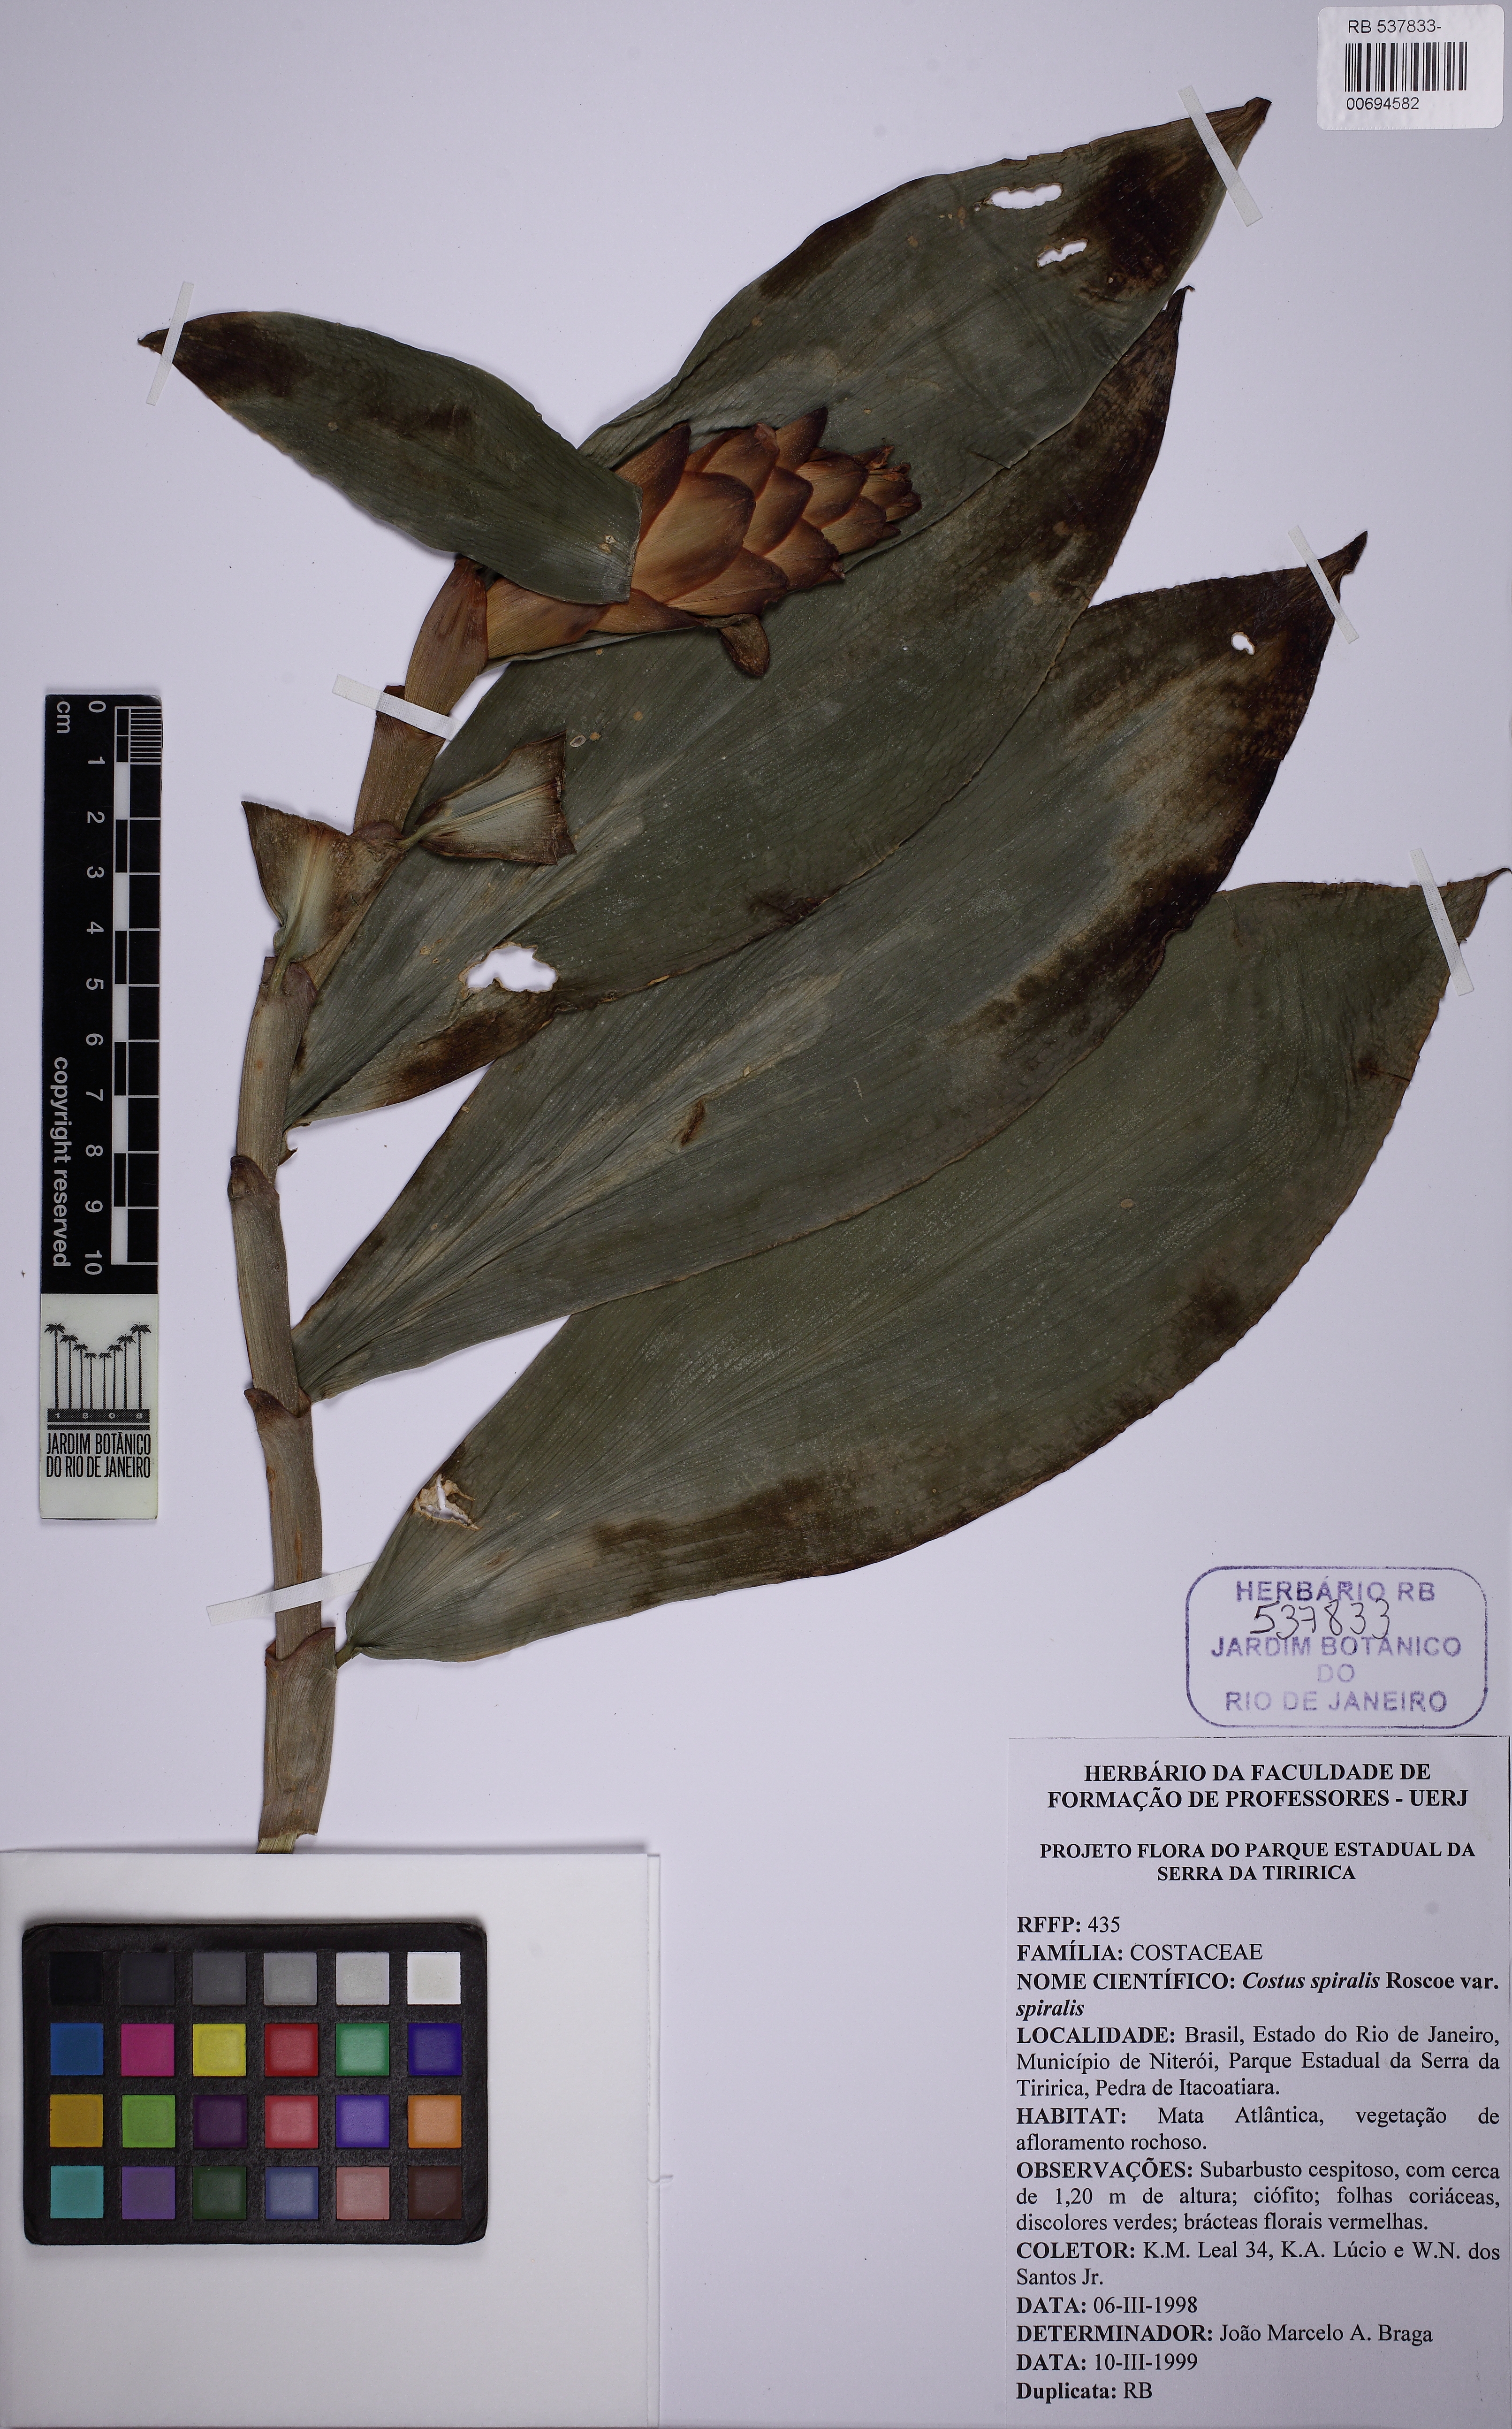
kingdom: Plantae
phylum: Tracheophyta
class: Liliopsida
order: Zingiberales
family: Costaceae
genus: Costus
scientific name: Costus spiralis
